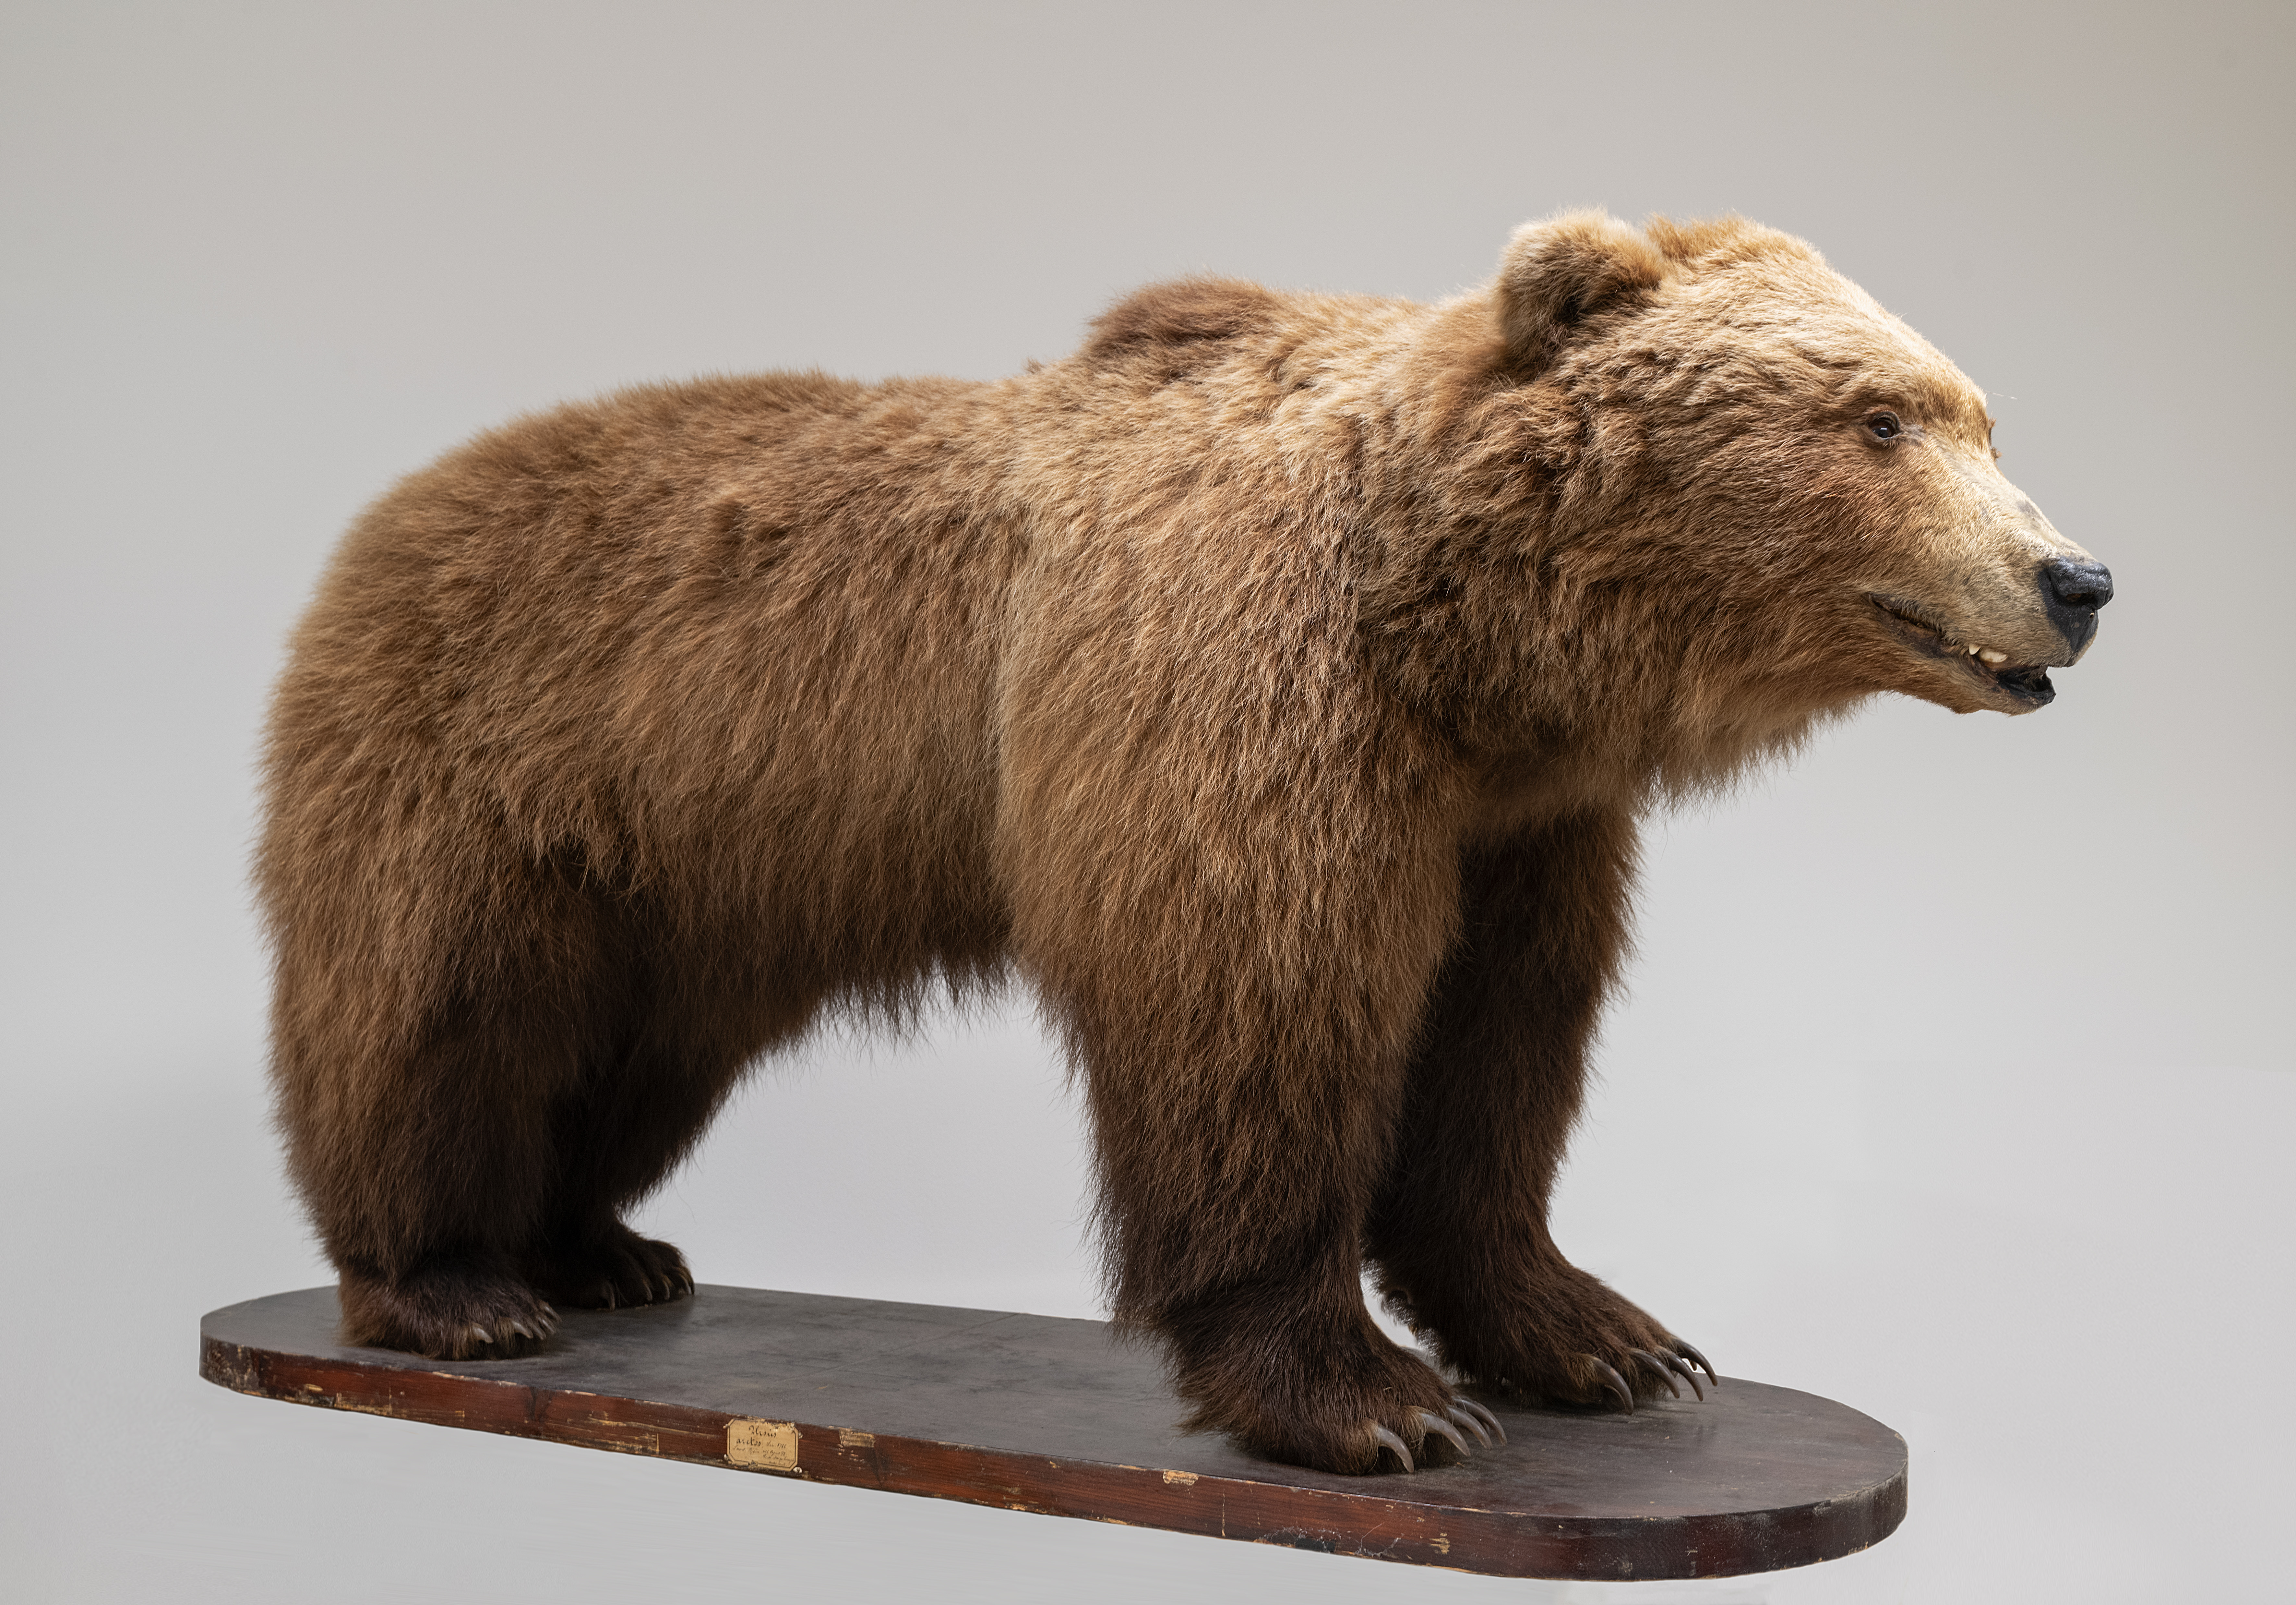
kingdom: Animalia
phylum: Chordata
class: Mammalia
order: Carnivora
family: Ursidae
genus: Ursus
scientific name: Ursus arctos
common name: Brown bear
